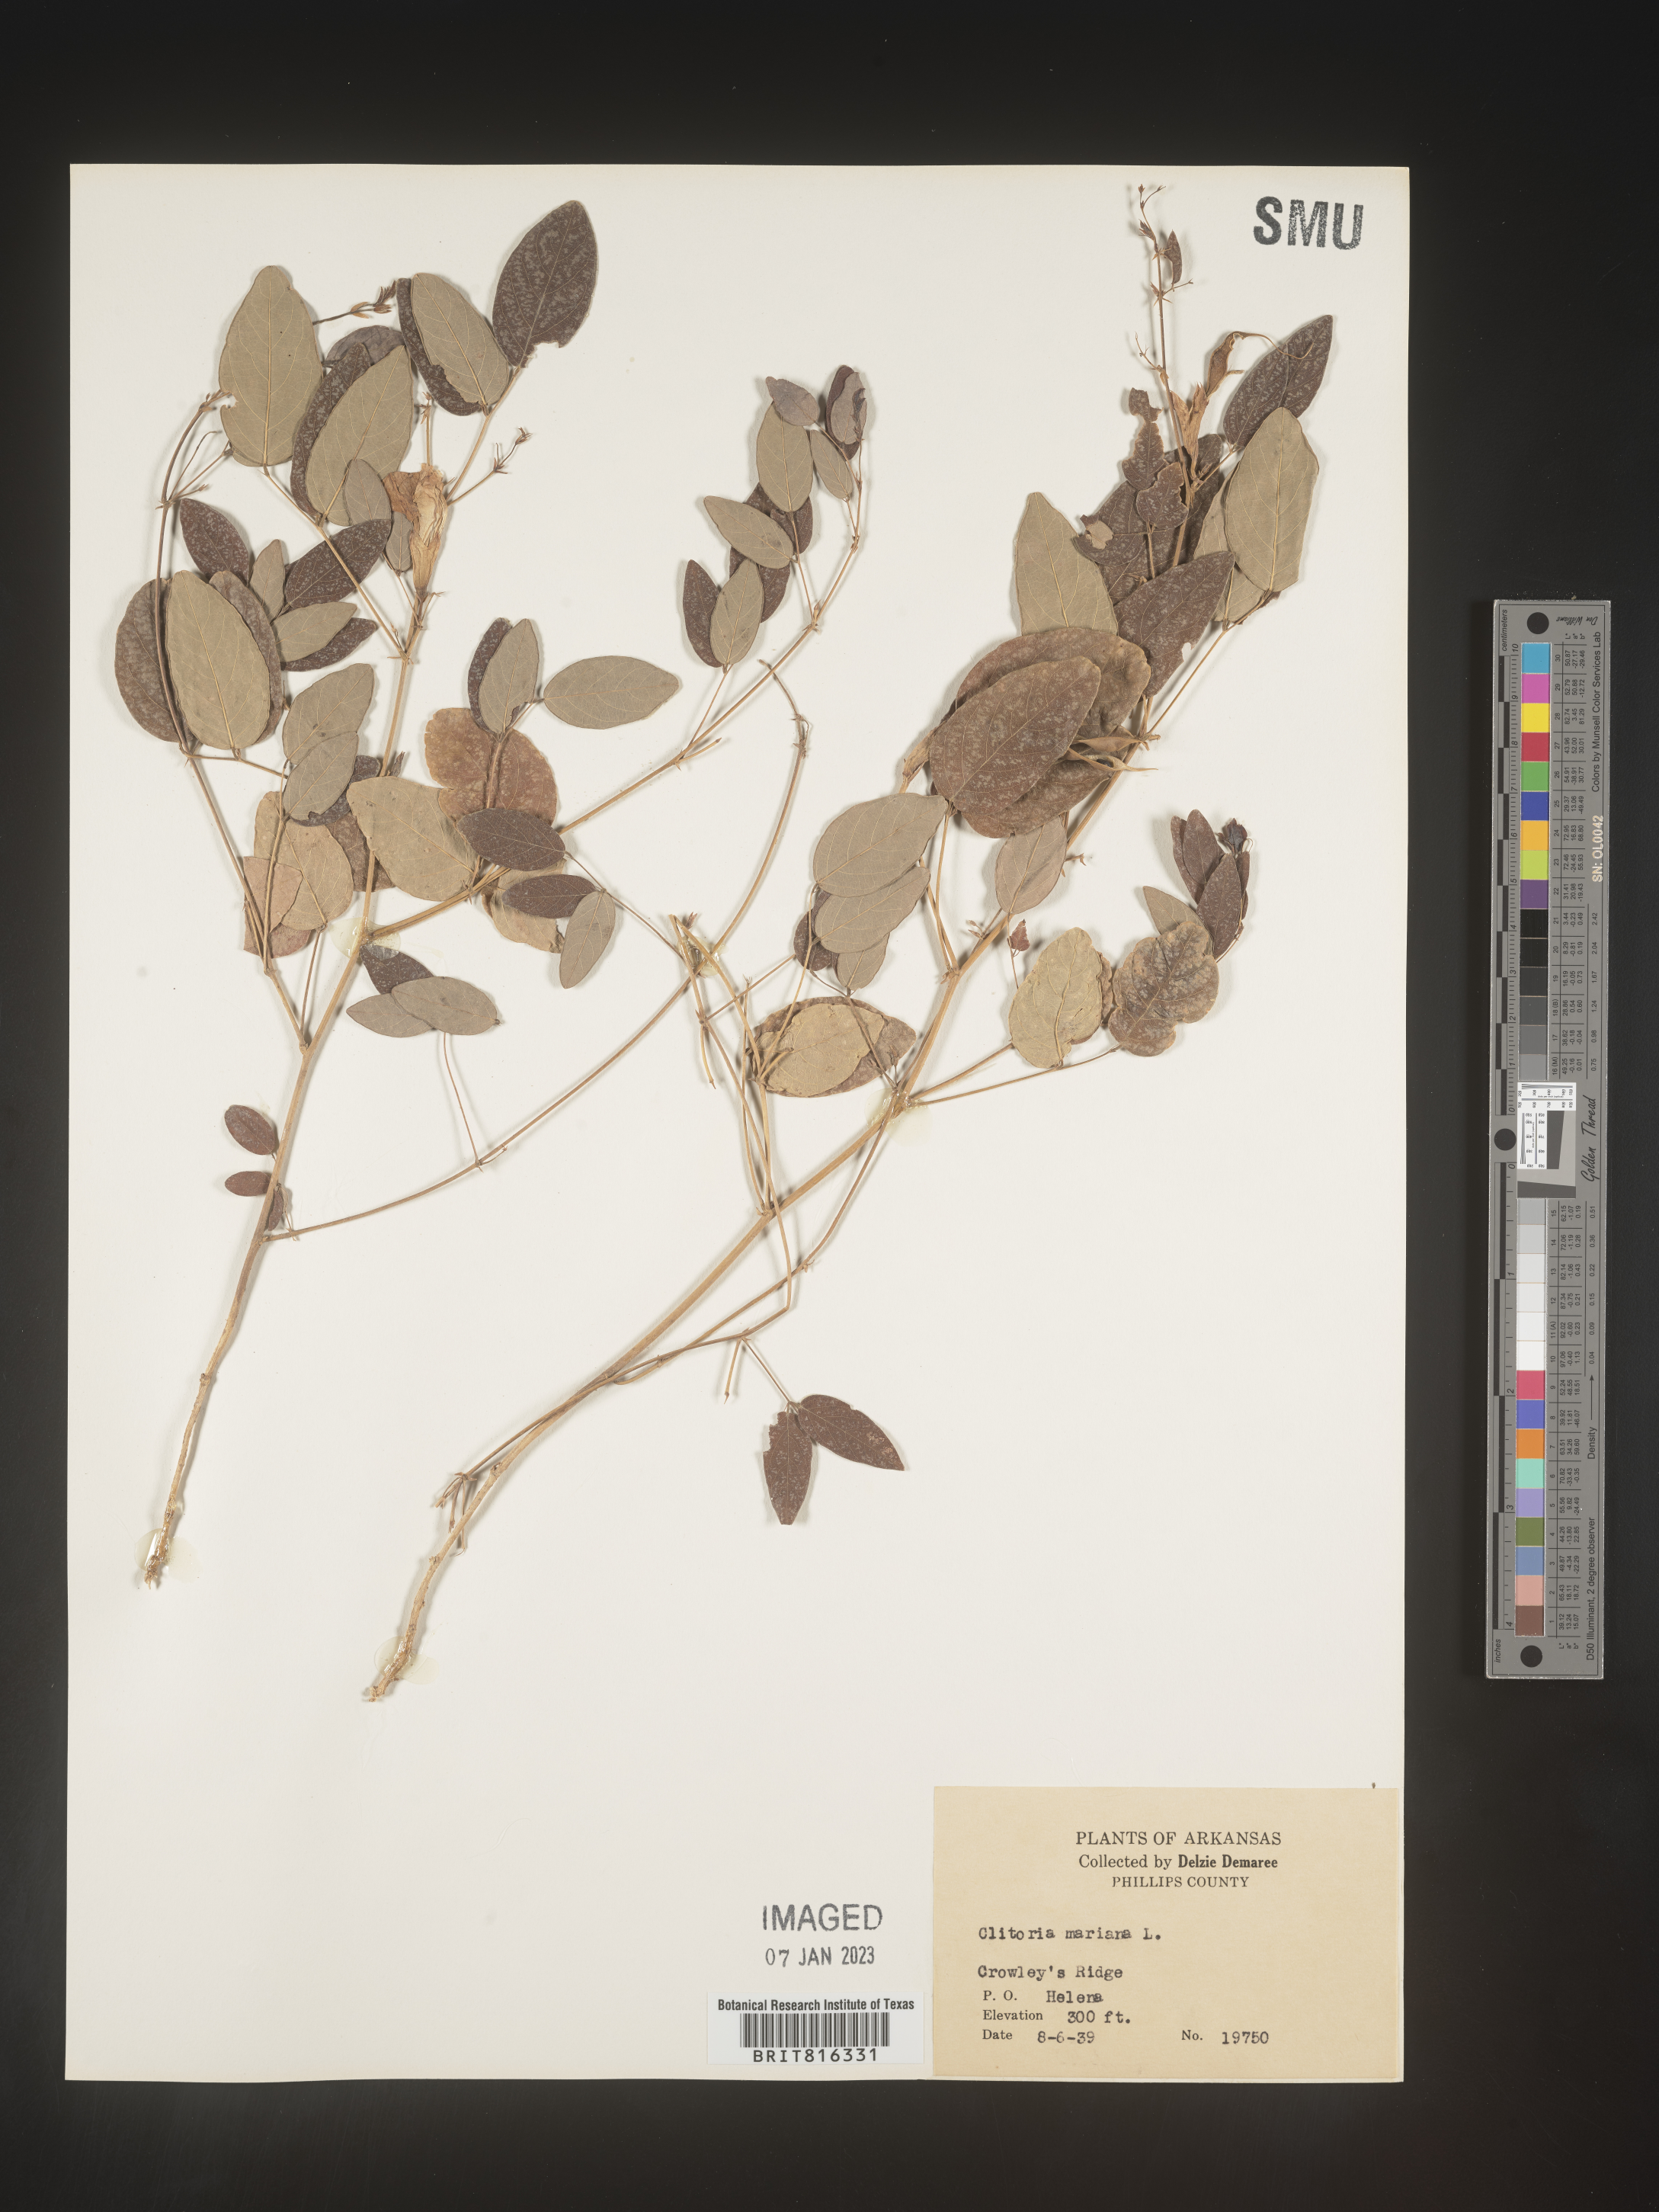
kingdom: Plantae
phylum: Tracheophyta
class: Magnoliopsida
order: Fabales
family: Fabaceae
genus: Clitoria
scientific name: Clitoria mariana
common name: Butterfly-pea
